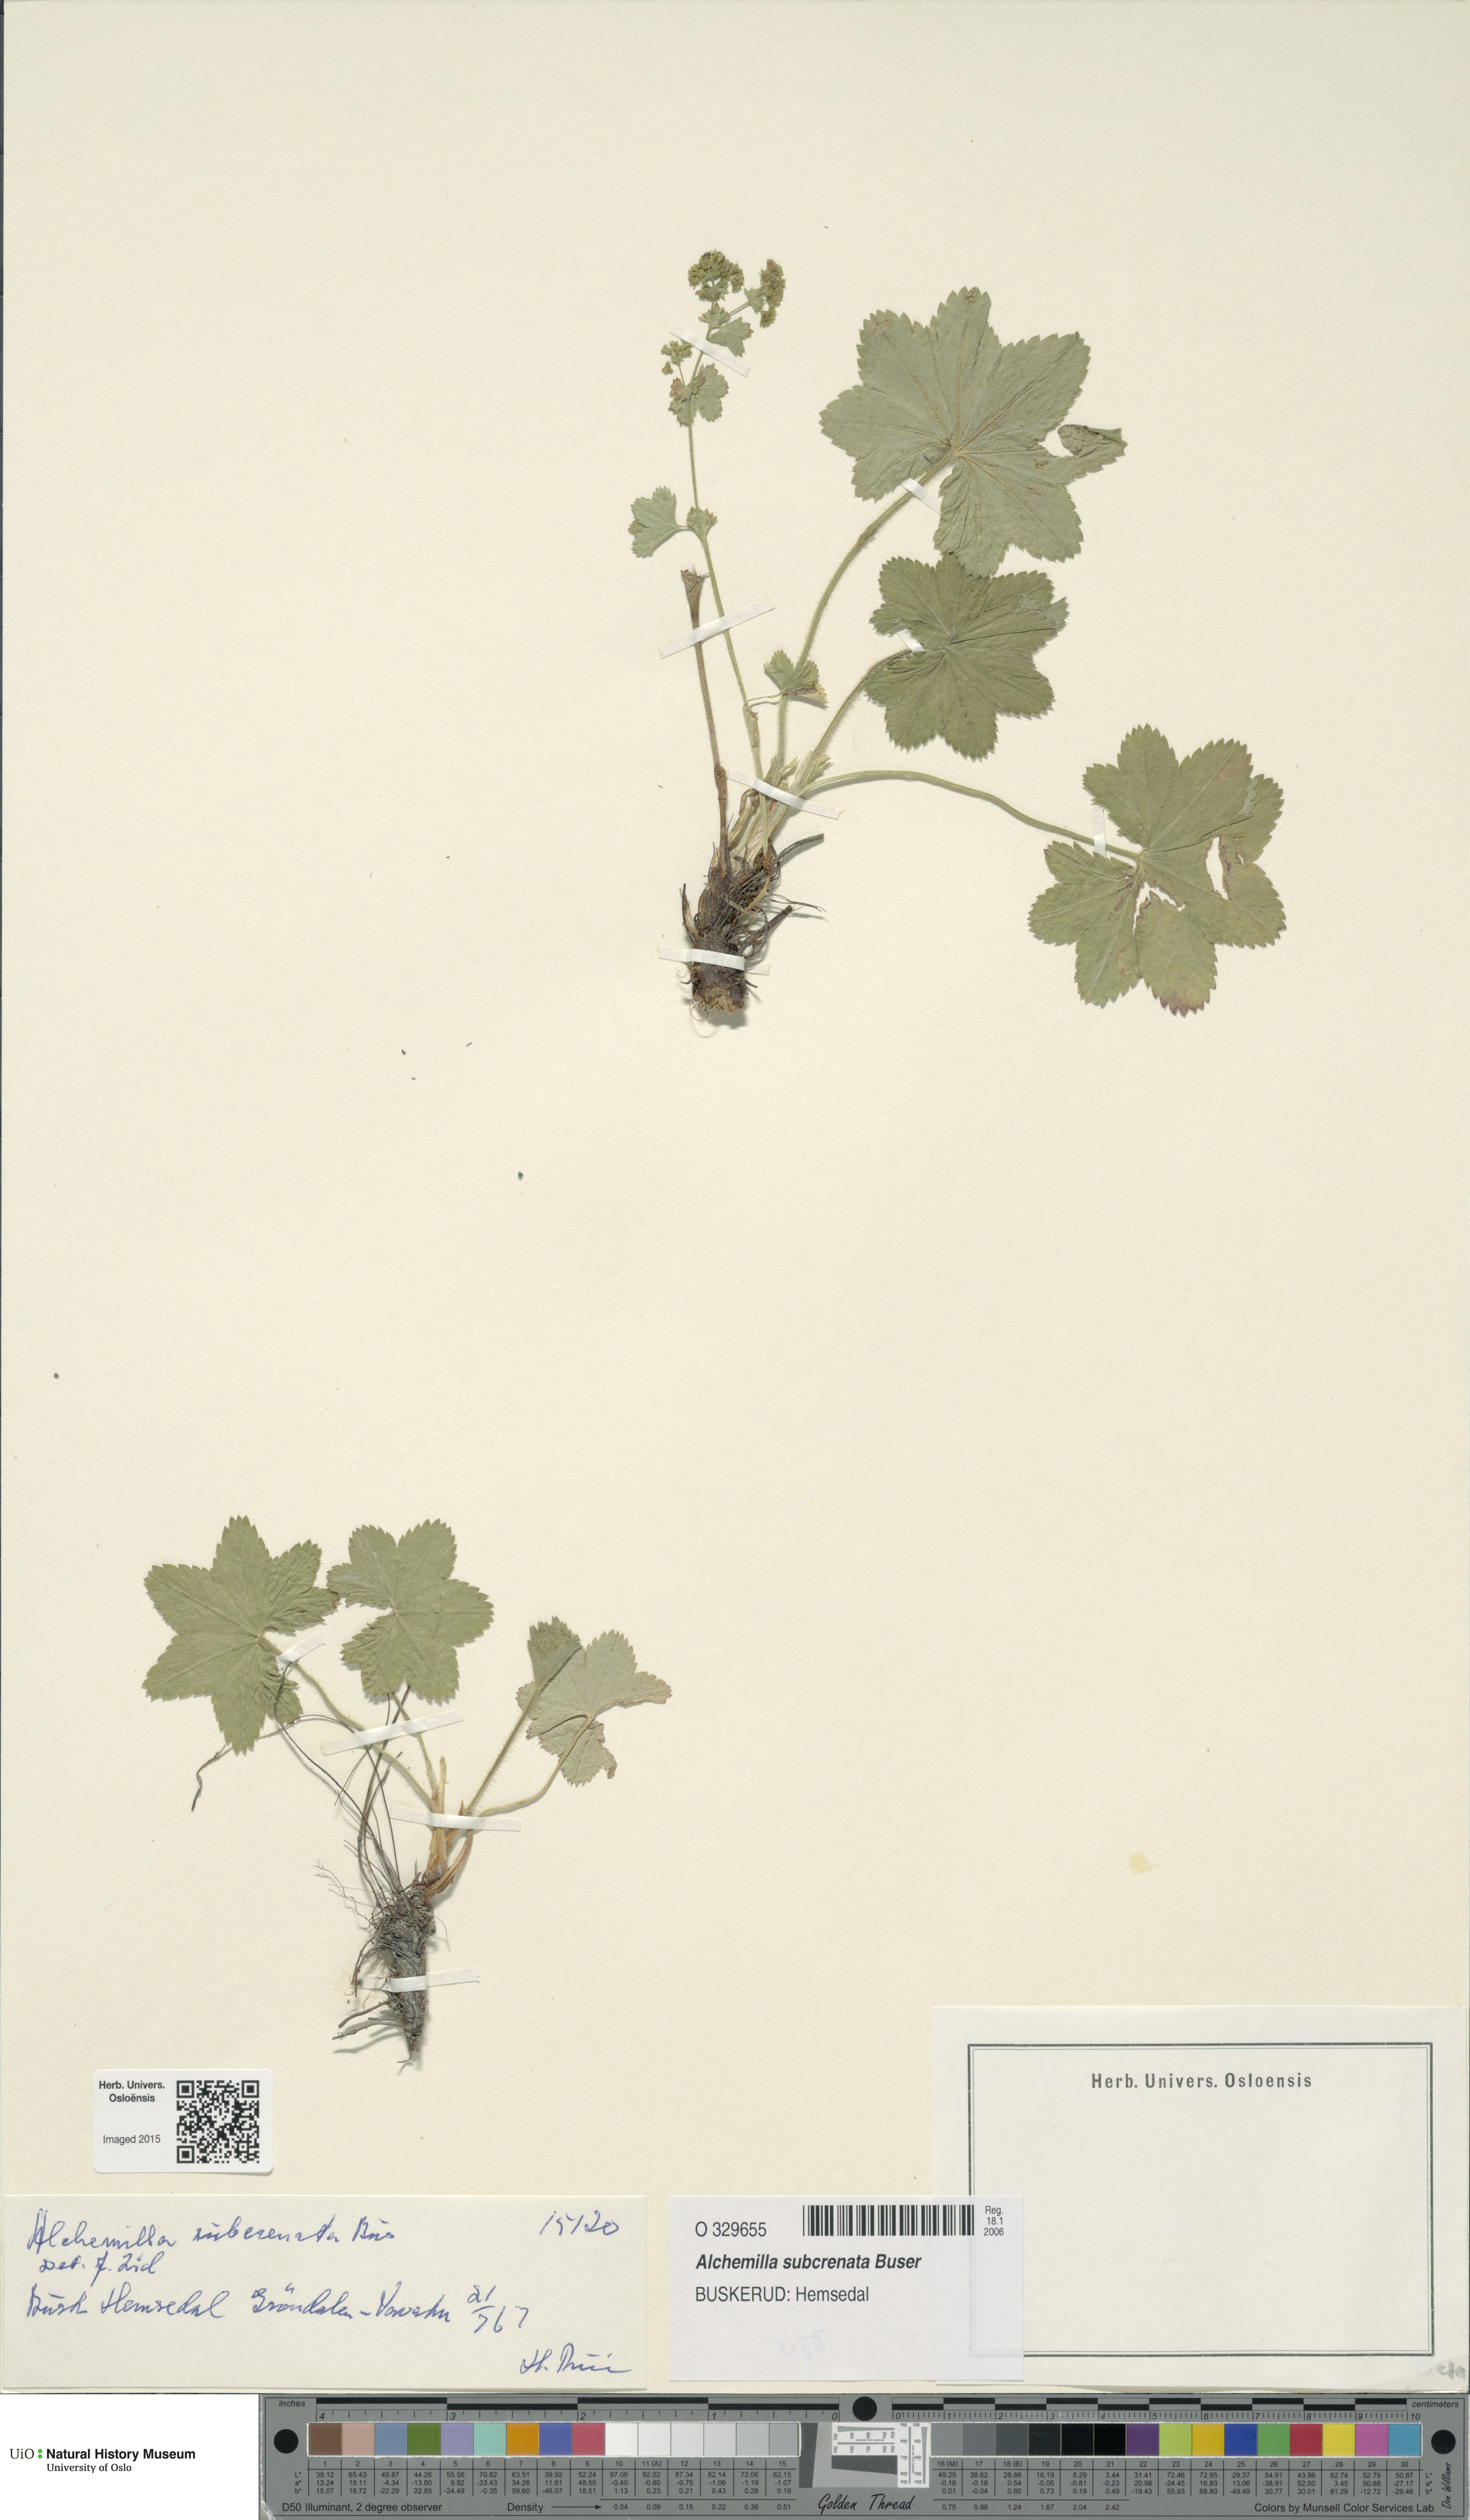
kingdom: Plantae
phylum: Tracheophyta
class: Magnoliopsida
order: Rosales
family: Rosaceae
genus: Alchemilla
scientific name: Alchemilla subcrenata
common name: Broadtooth lady's mantle
